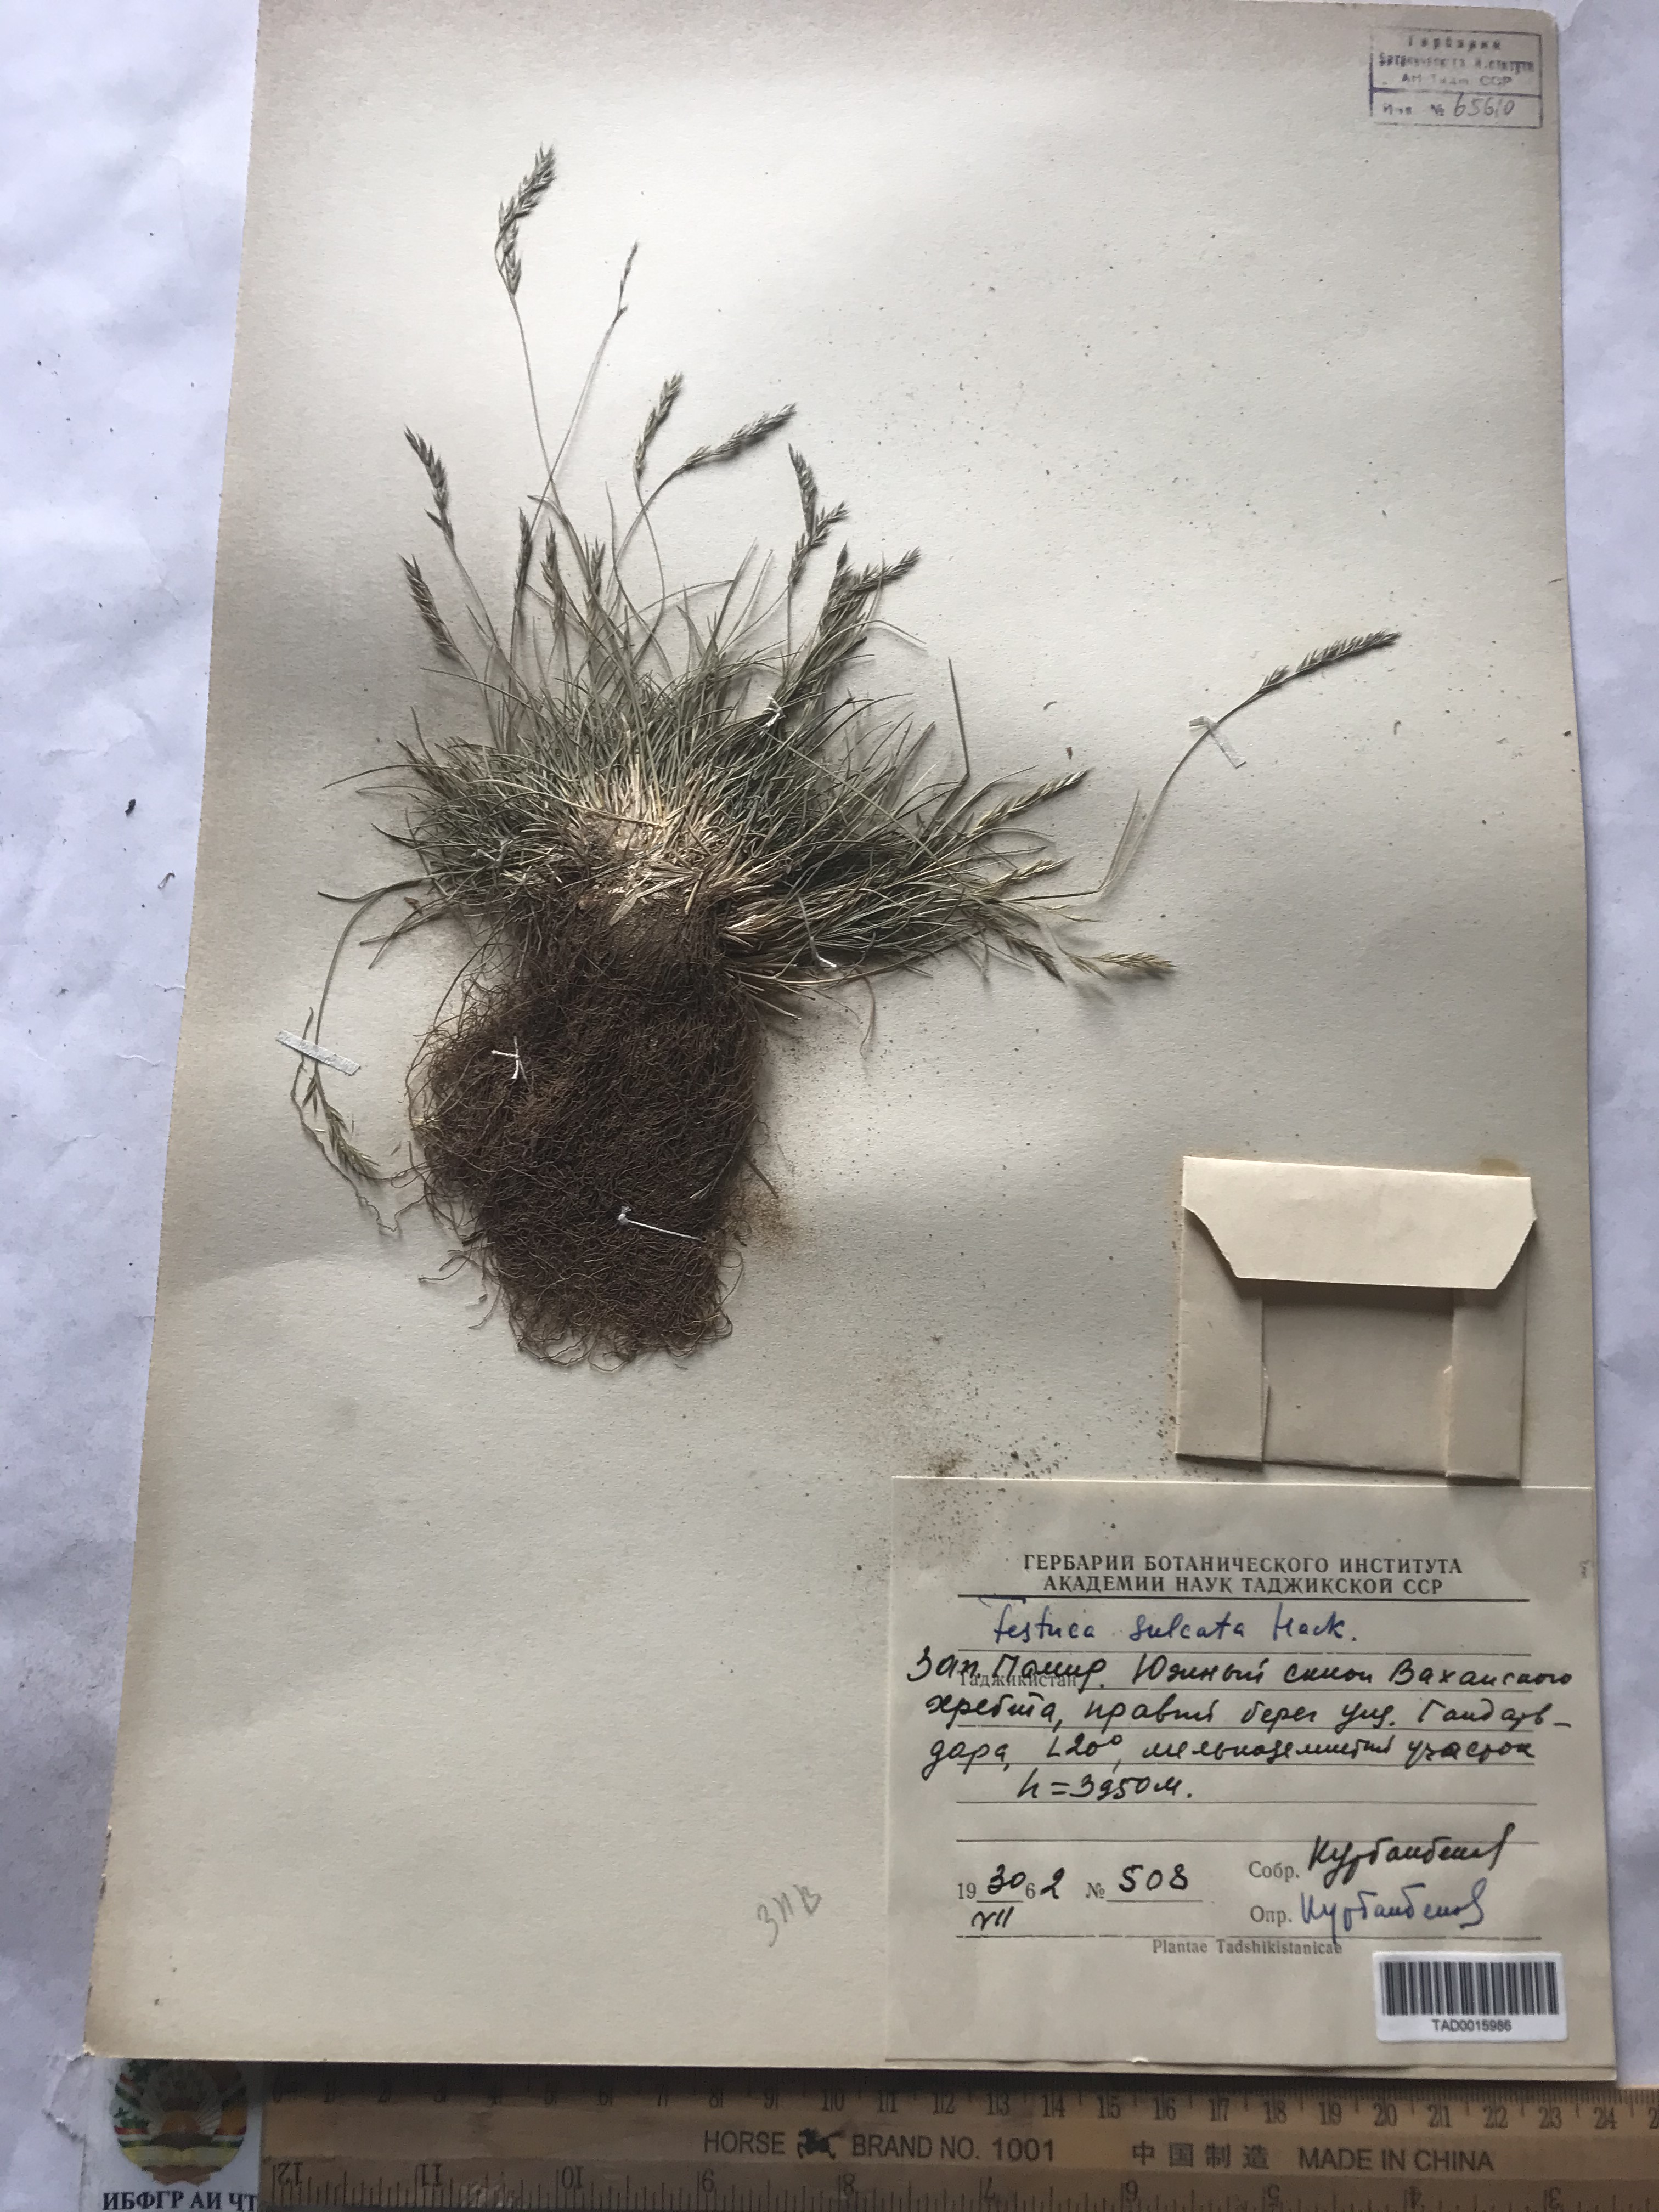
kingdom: Plantae
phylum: Tracheophyta
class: Liliopsida
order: Poales
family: Poaceae
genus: Festuca
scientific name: Festuca sulcata
